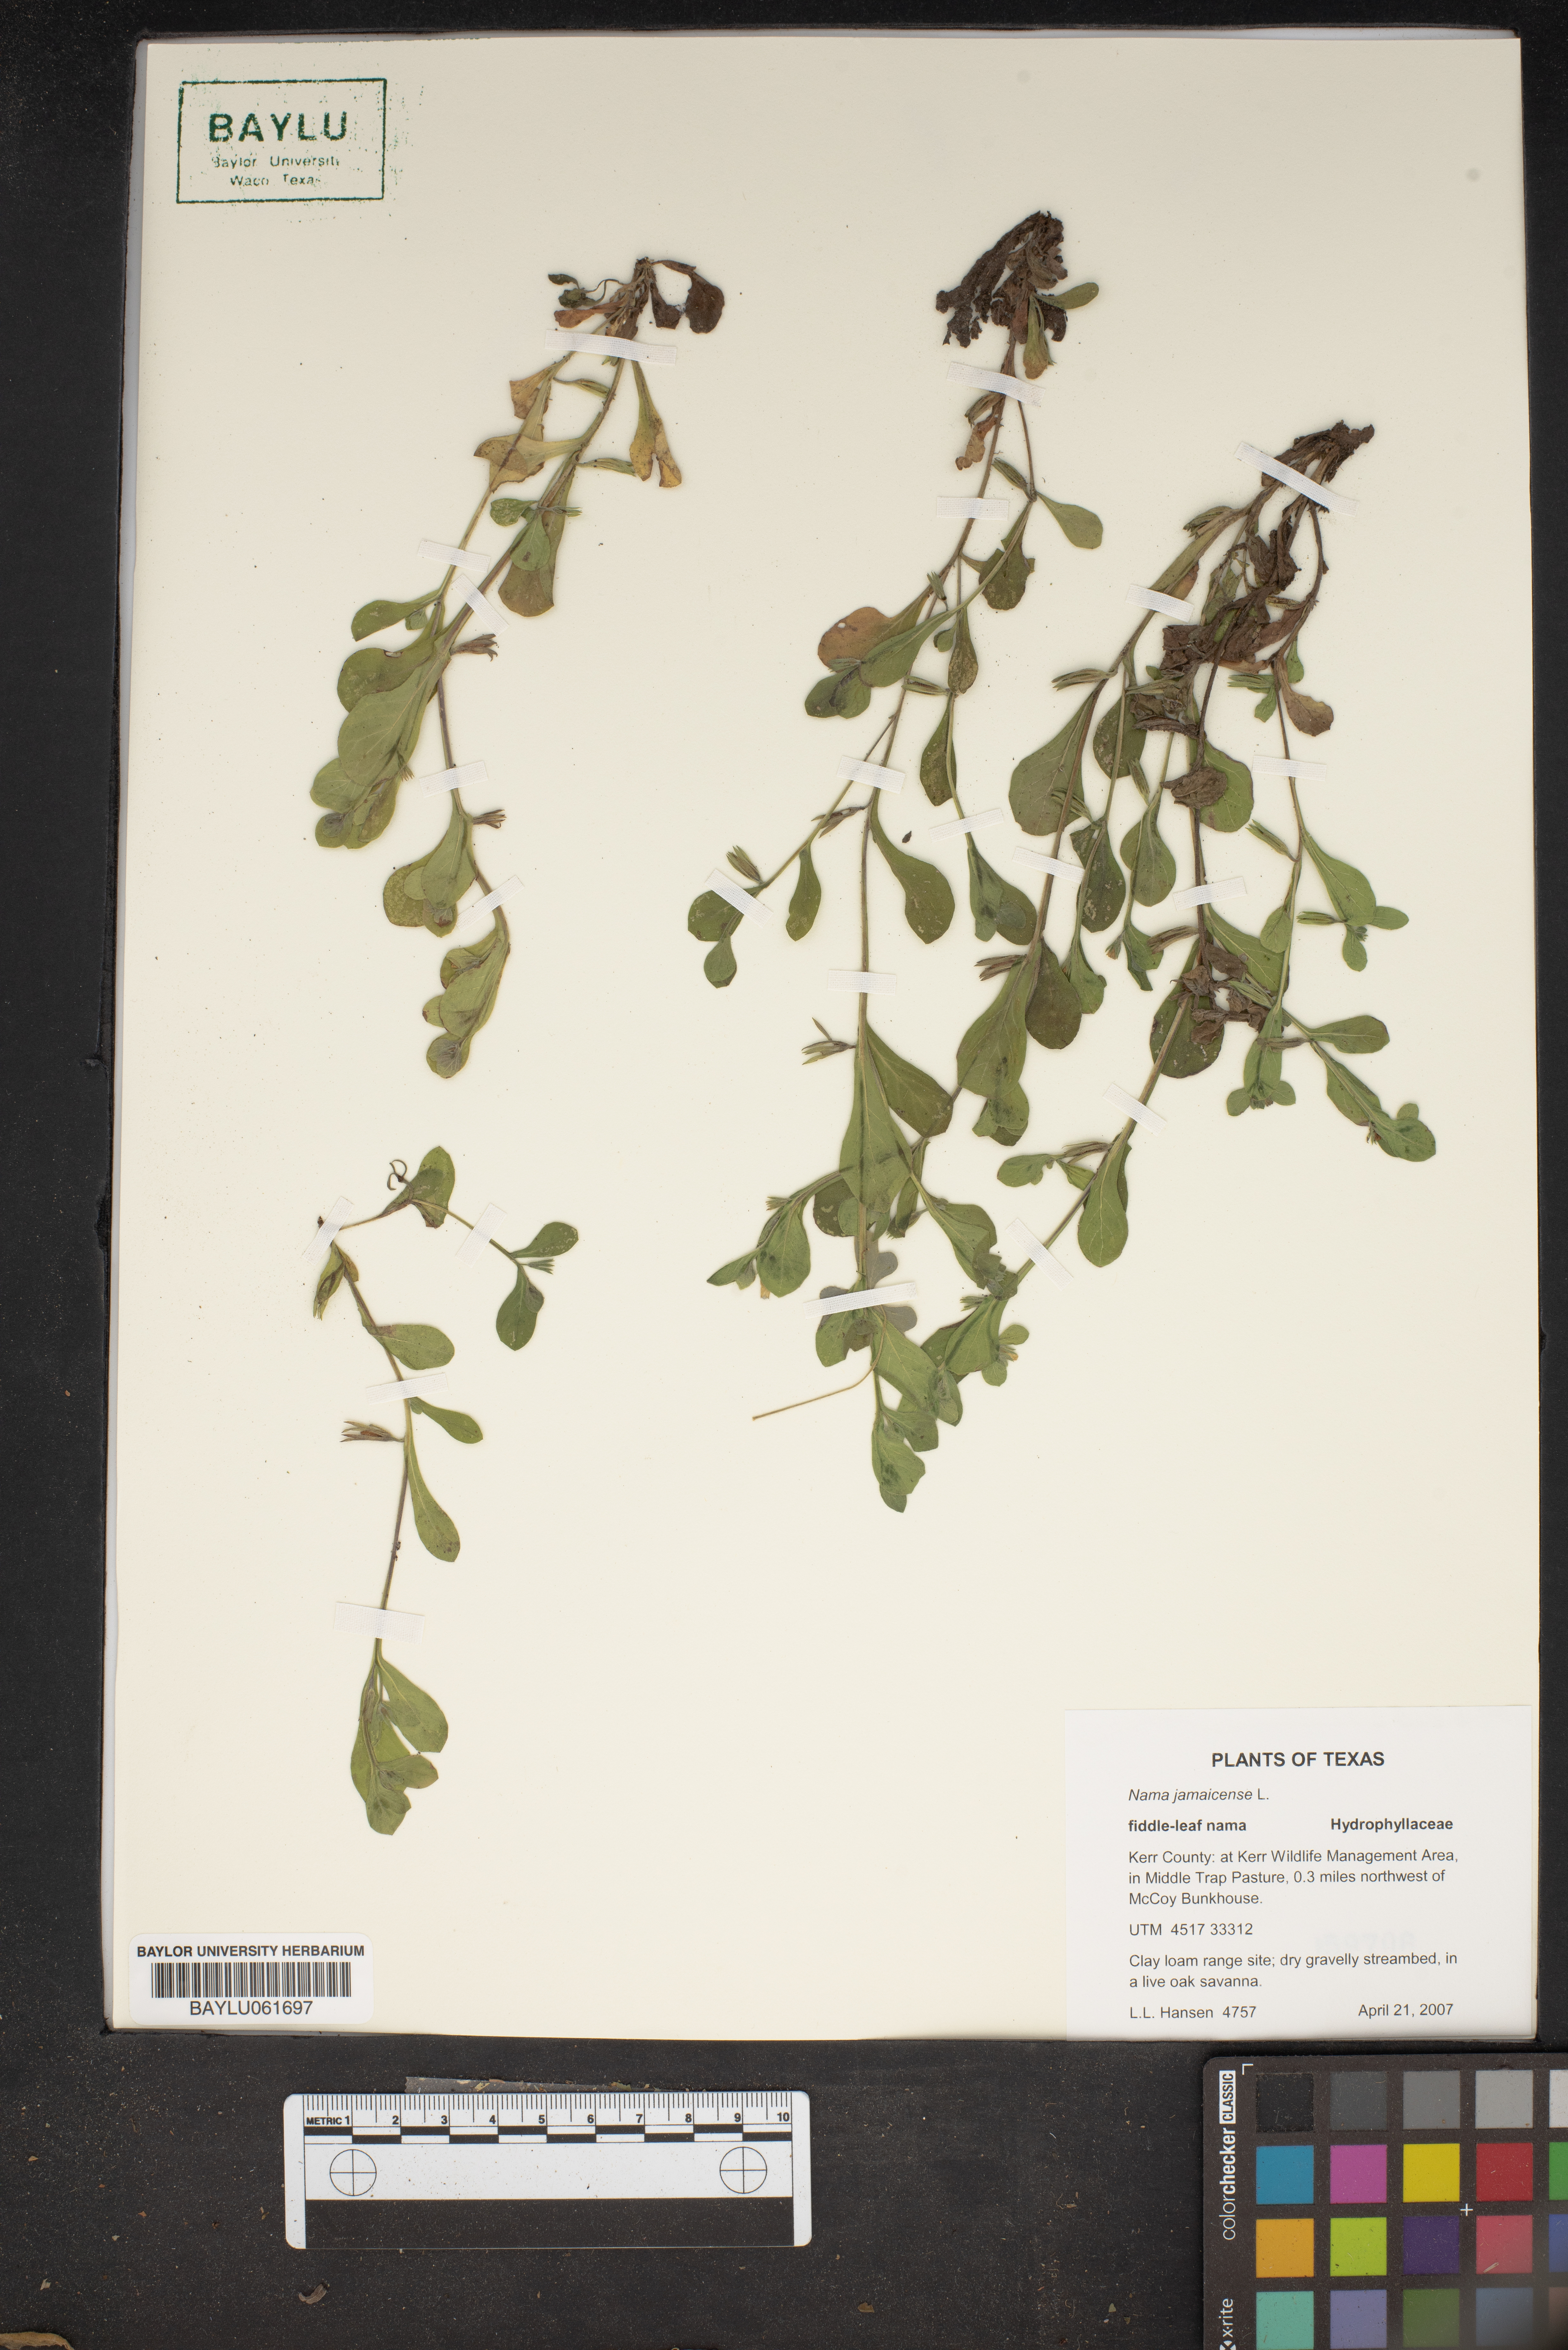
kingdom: Plantae
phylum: Tracheophyta
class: Magnoliopsida
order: Boraginales
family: Namaceae
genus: Nama
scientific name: Nama jamaicense
